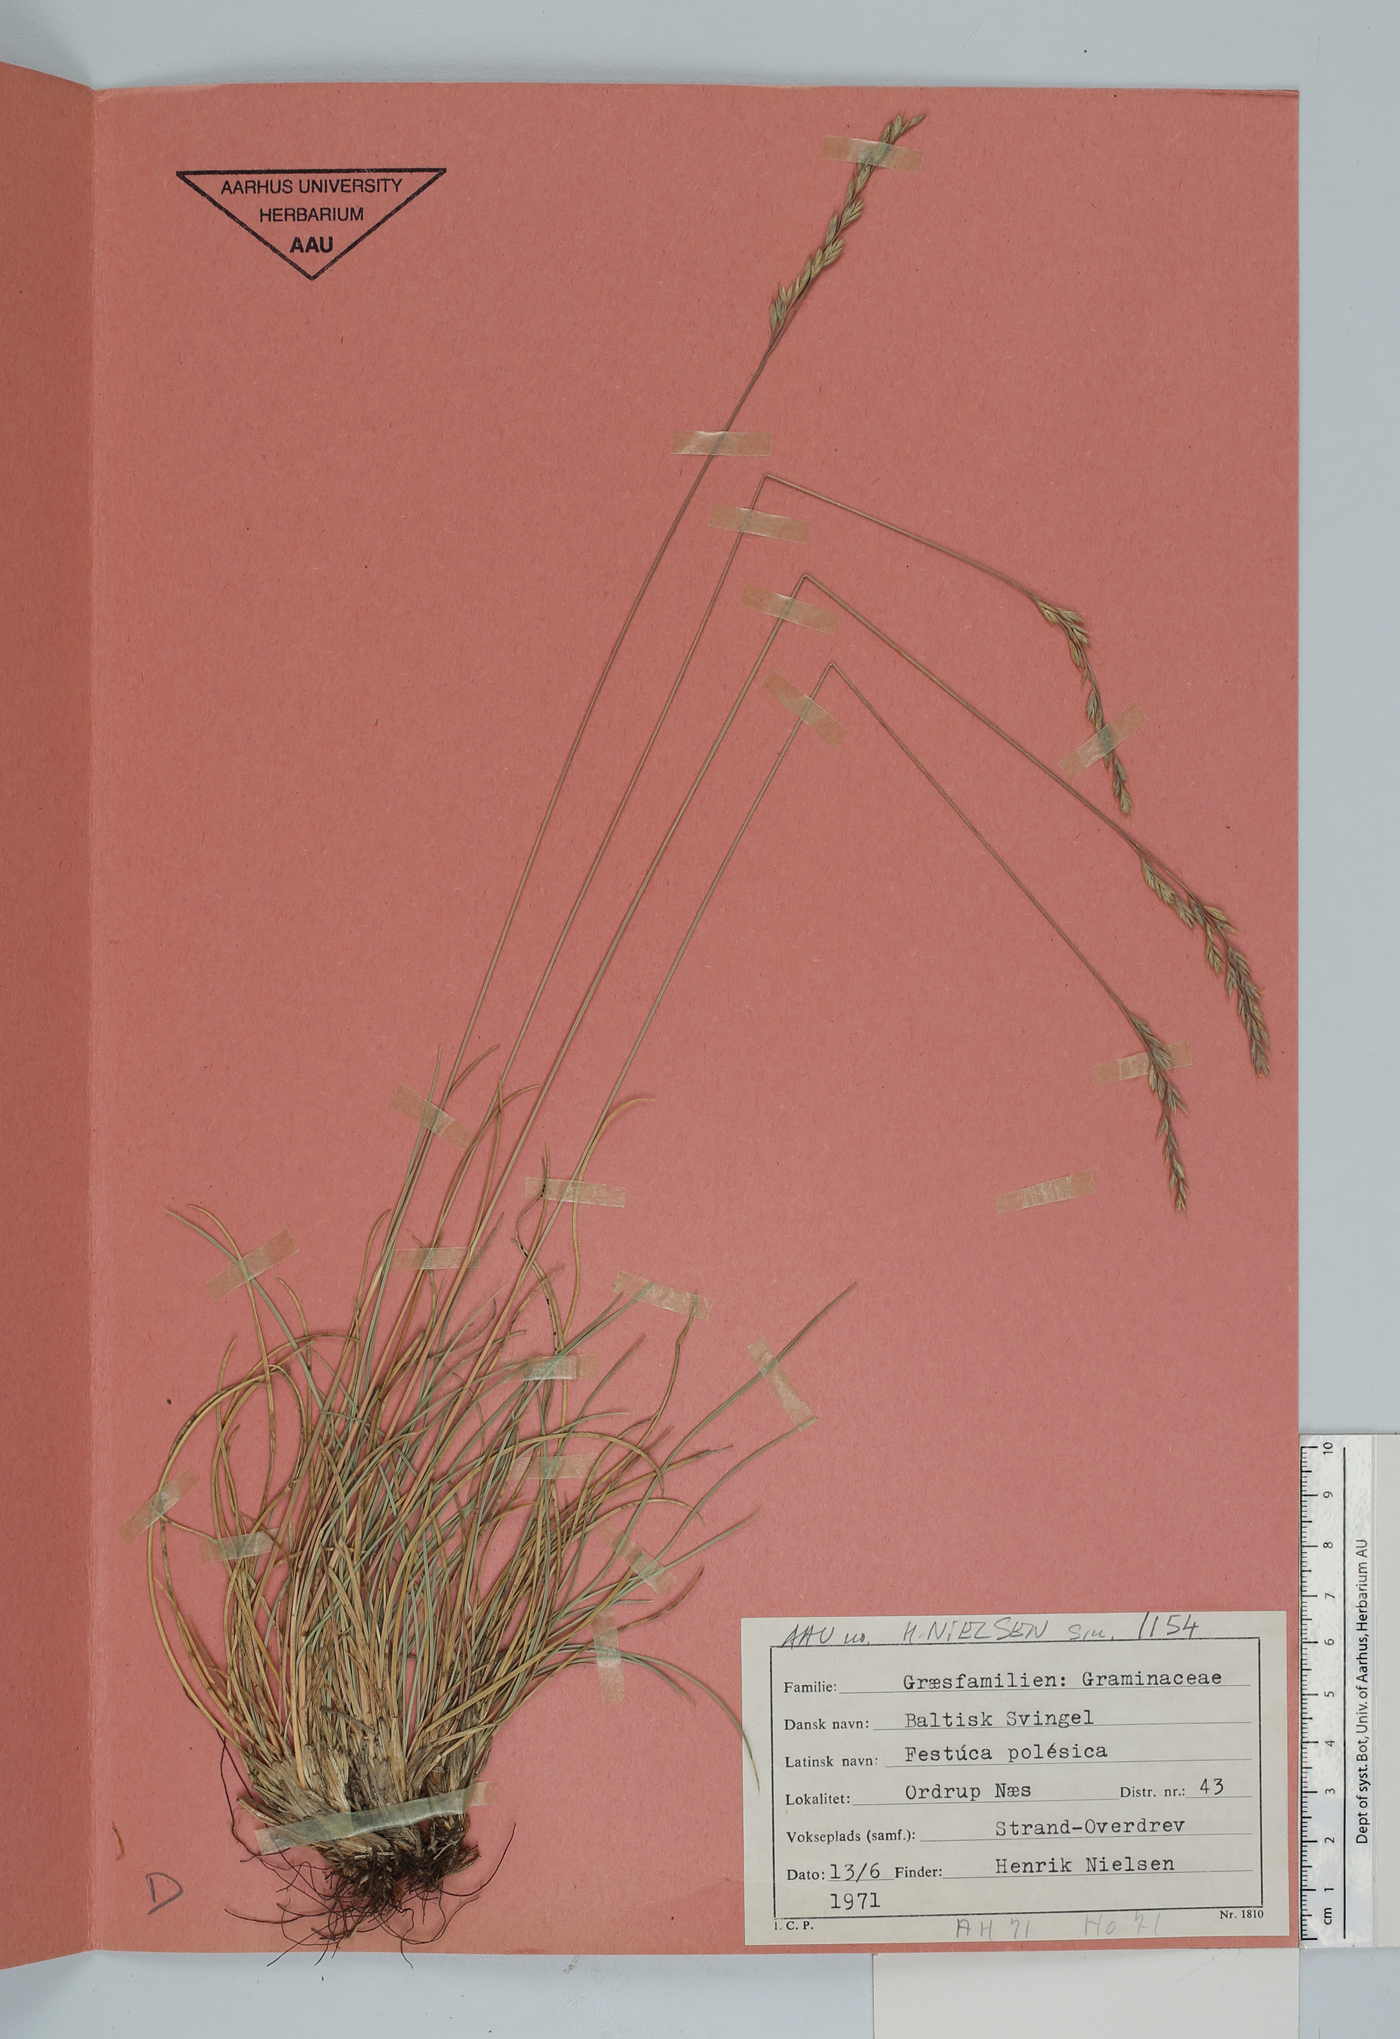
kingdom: Plantae
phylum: Tracheophyta
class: Liliopsida
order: Poales
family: Poaceae
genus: Festuca
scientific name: Festuca beckeri
